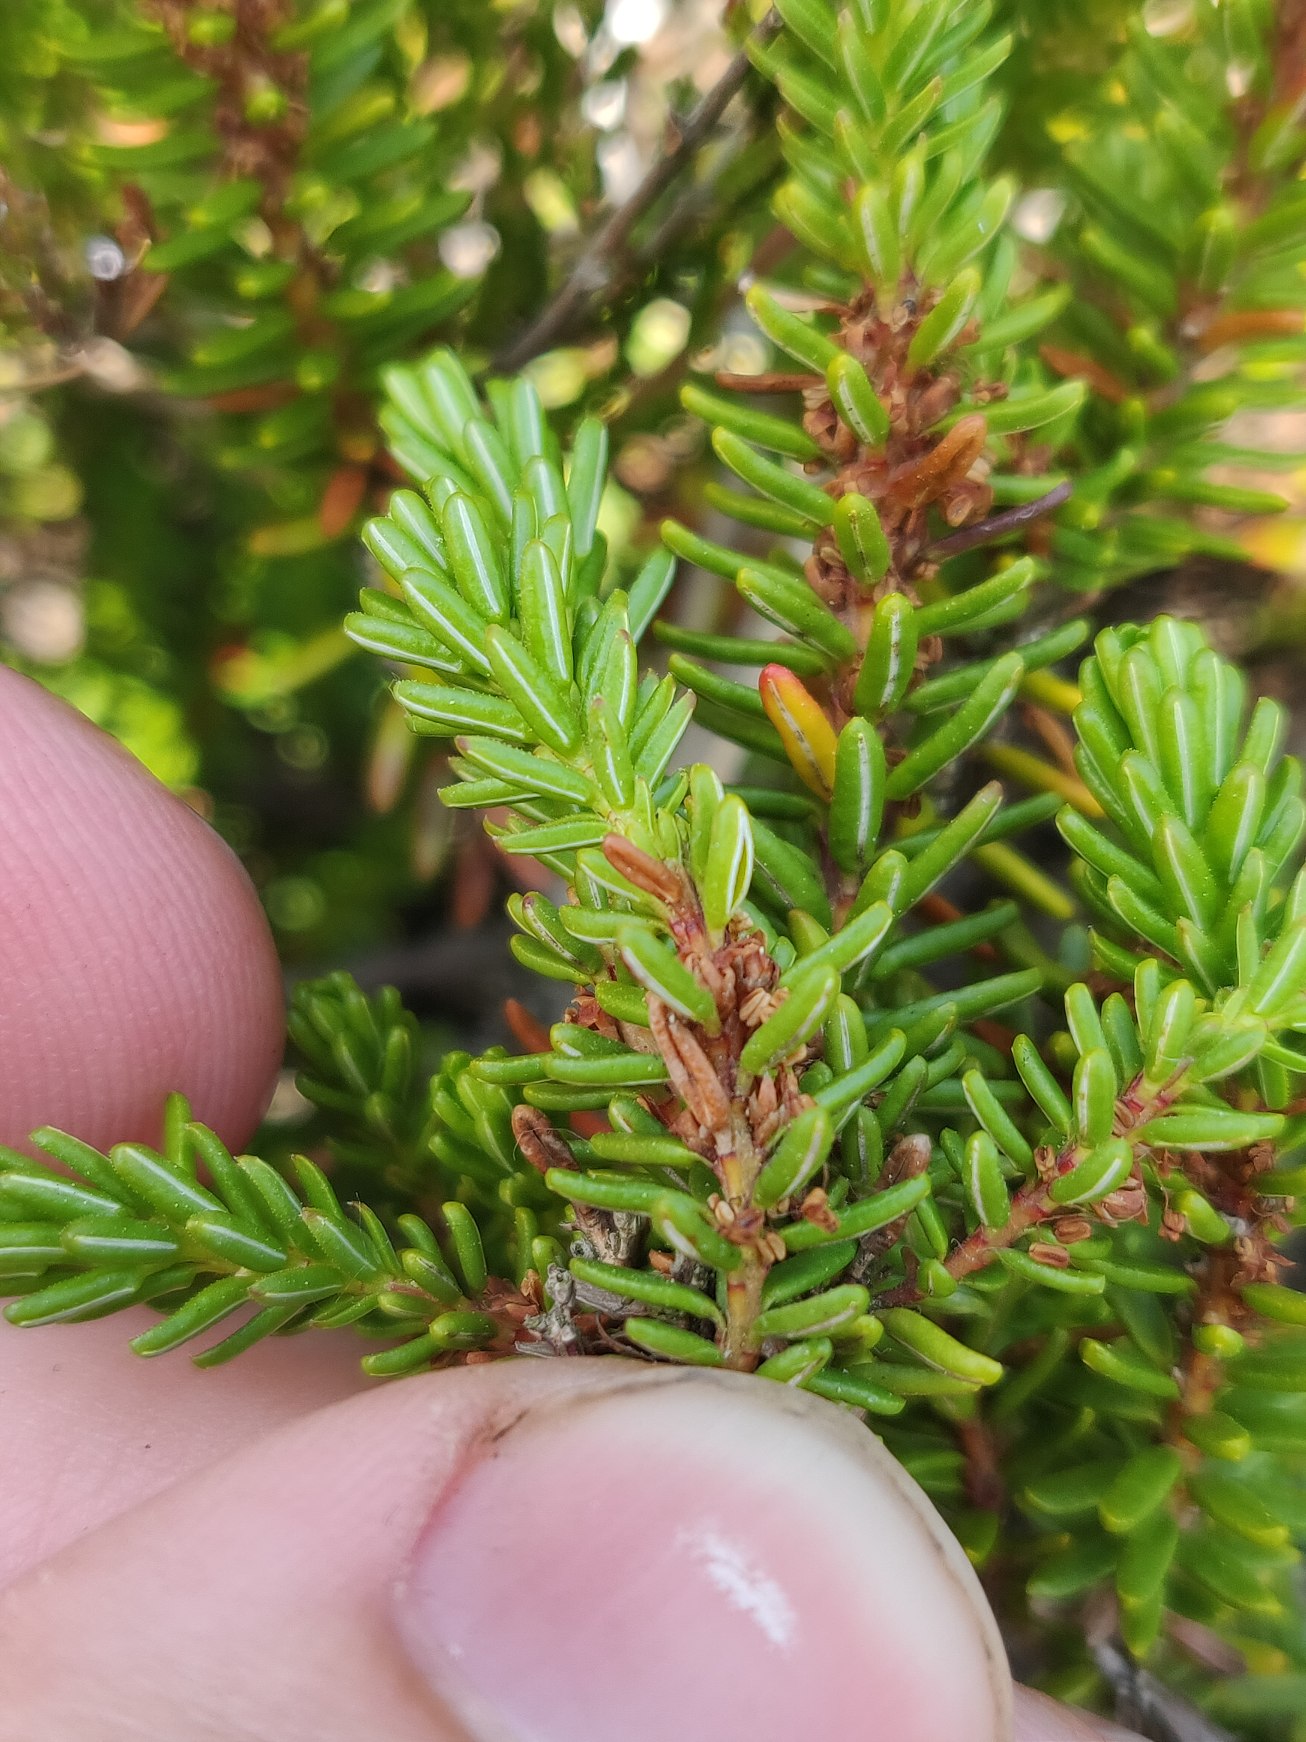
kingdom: Plantae
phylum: Tracheophyta
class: Magnoliopsida
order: Ericales
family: Ericaceae
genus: Empetrum
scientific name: Empetrum nigrum
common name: Revling
